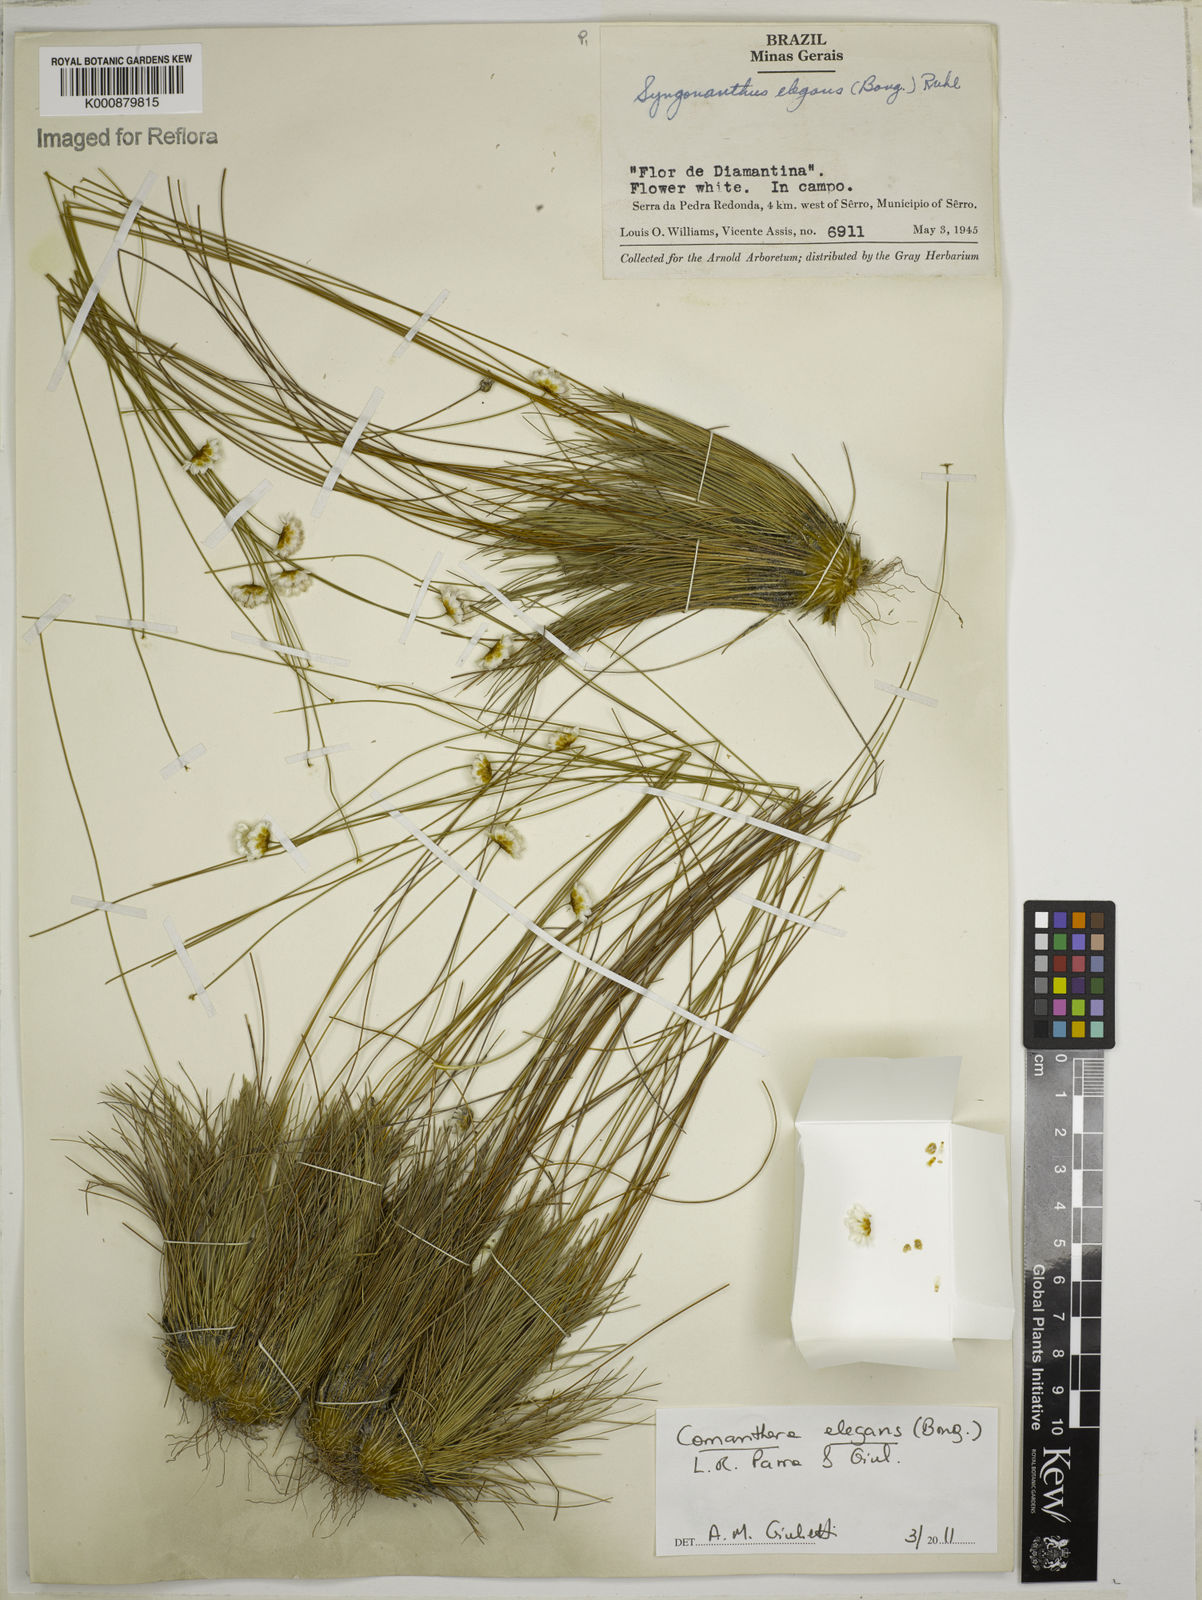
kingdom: Plantae
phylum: Tracheophyta
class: Liliopsida
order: Poales
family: Eriocaulaceae
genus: Comanthera
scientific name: Comanthera elegans
